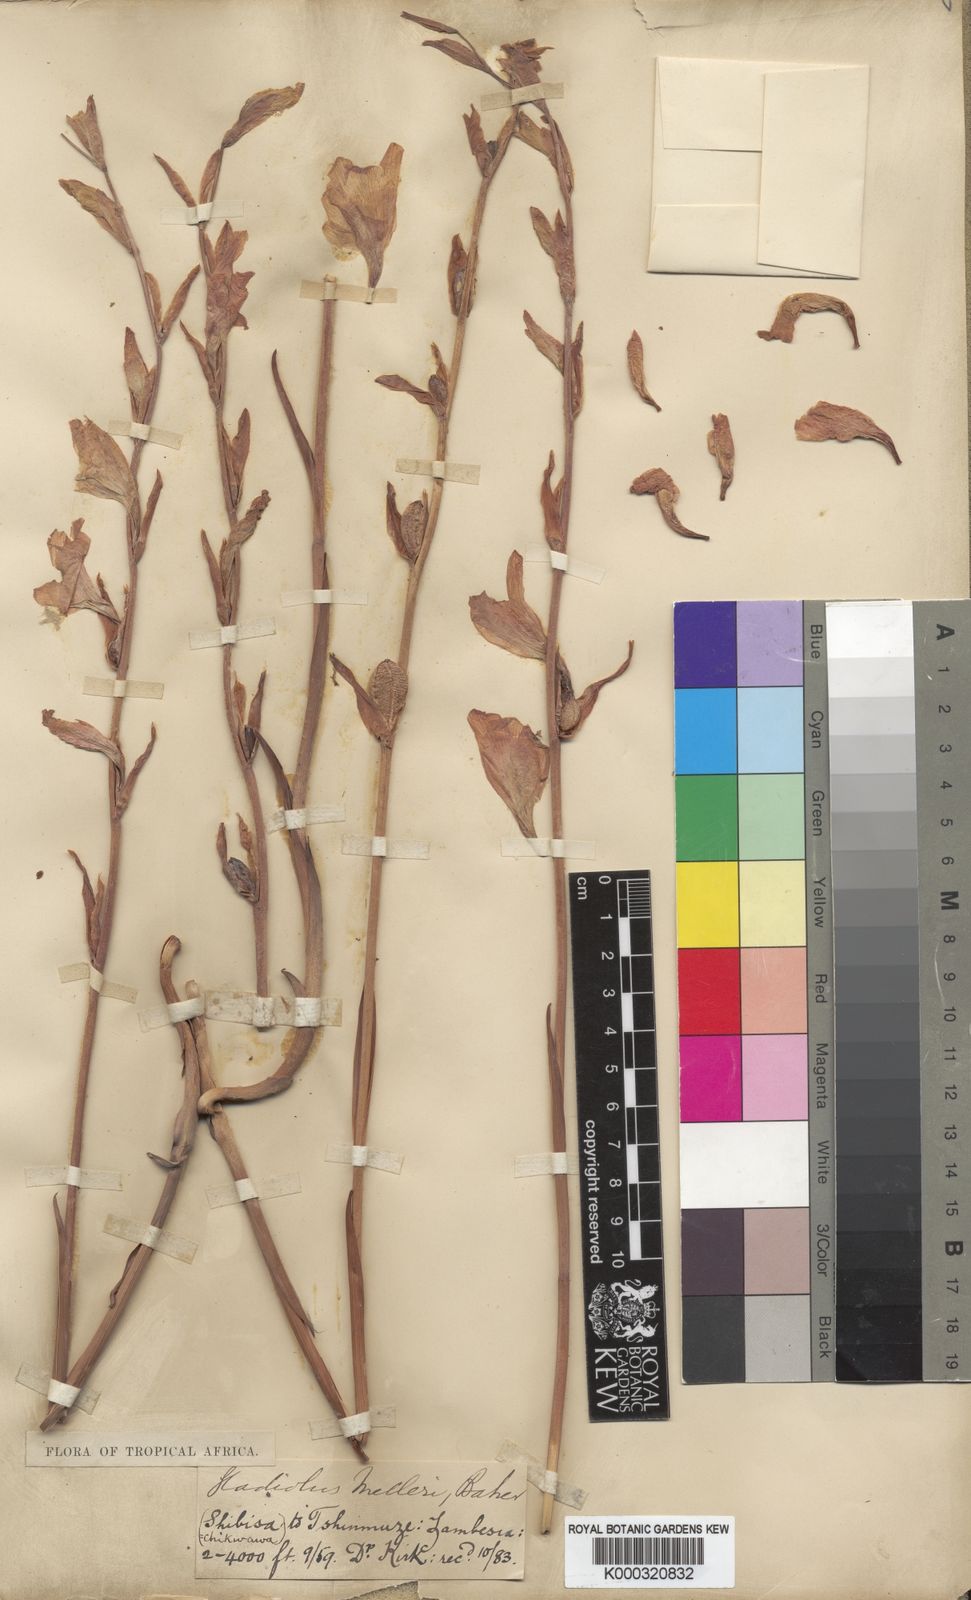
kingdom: Plantae
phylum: Tracheophyta
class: Liliopsida
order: Asparagales
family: Iridaceae
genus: Gladiolus
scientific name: Gladiolus melleri
